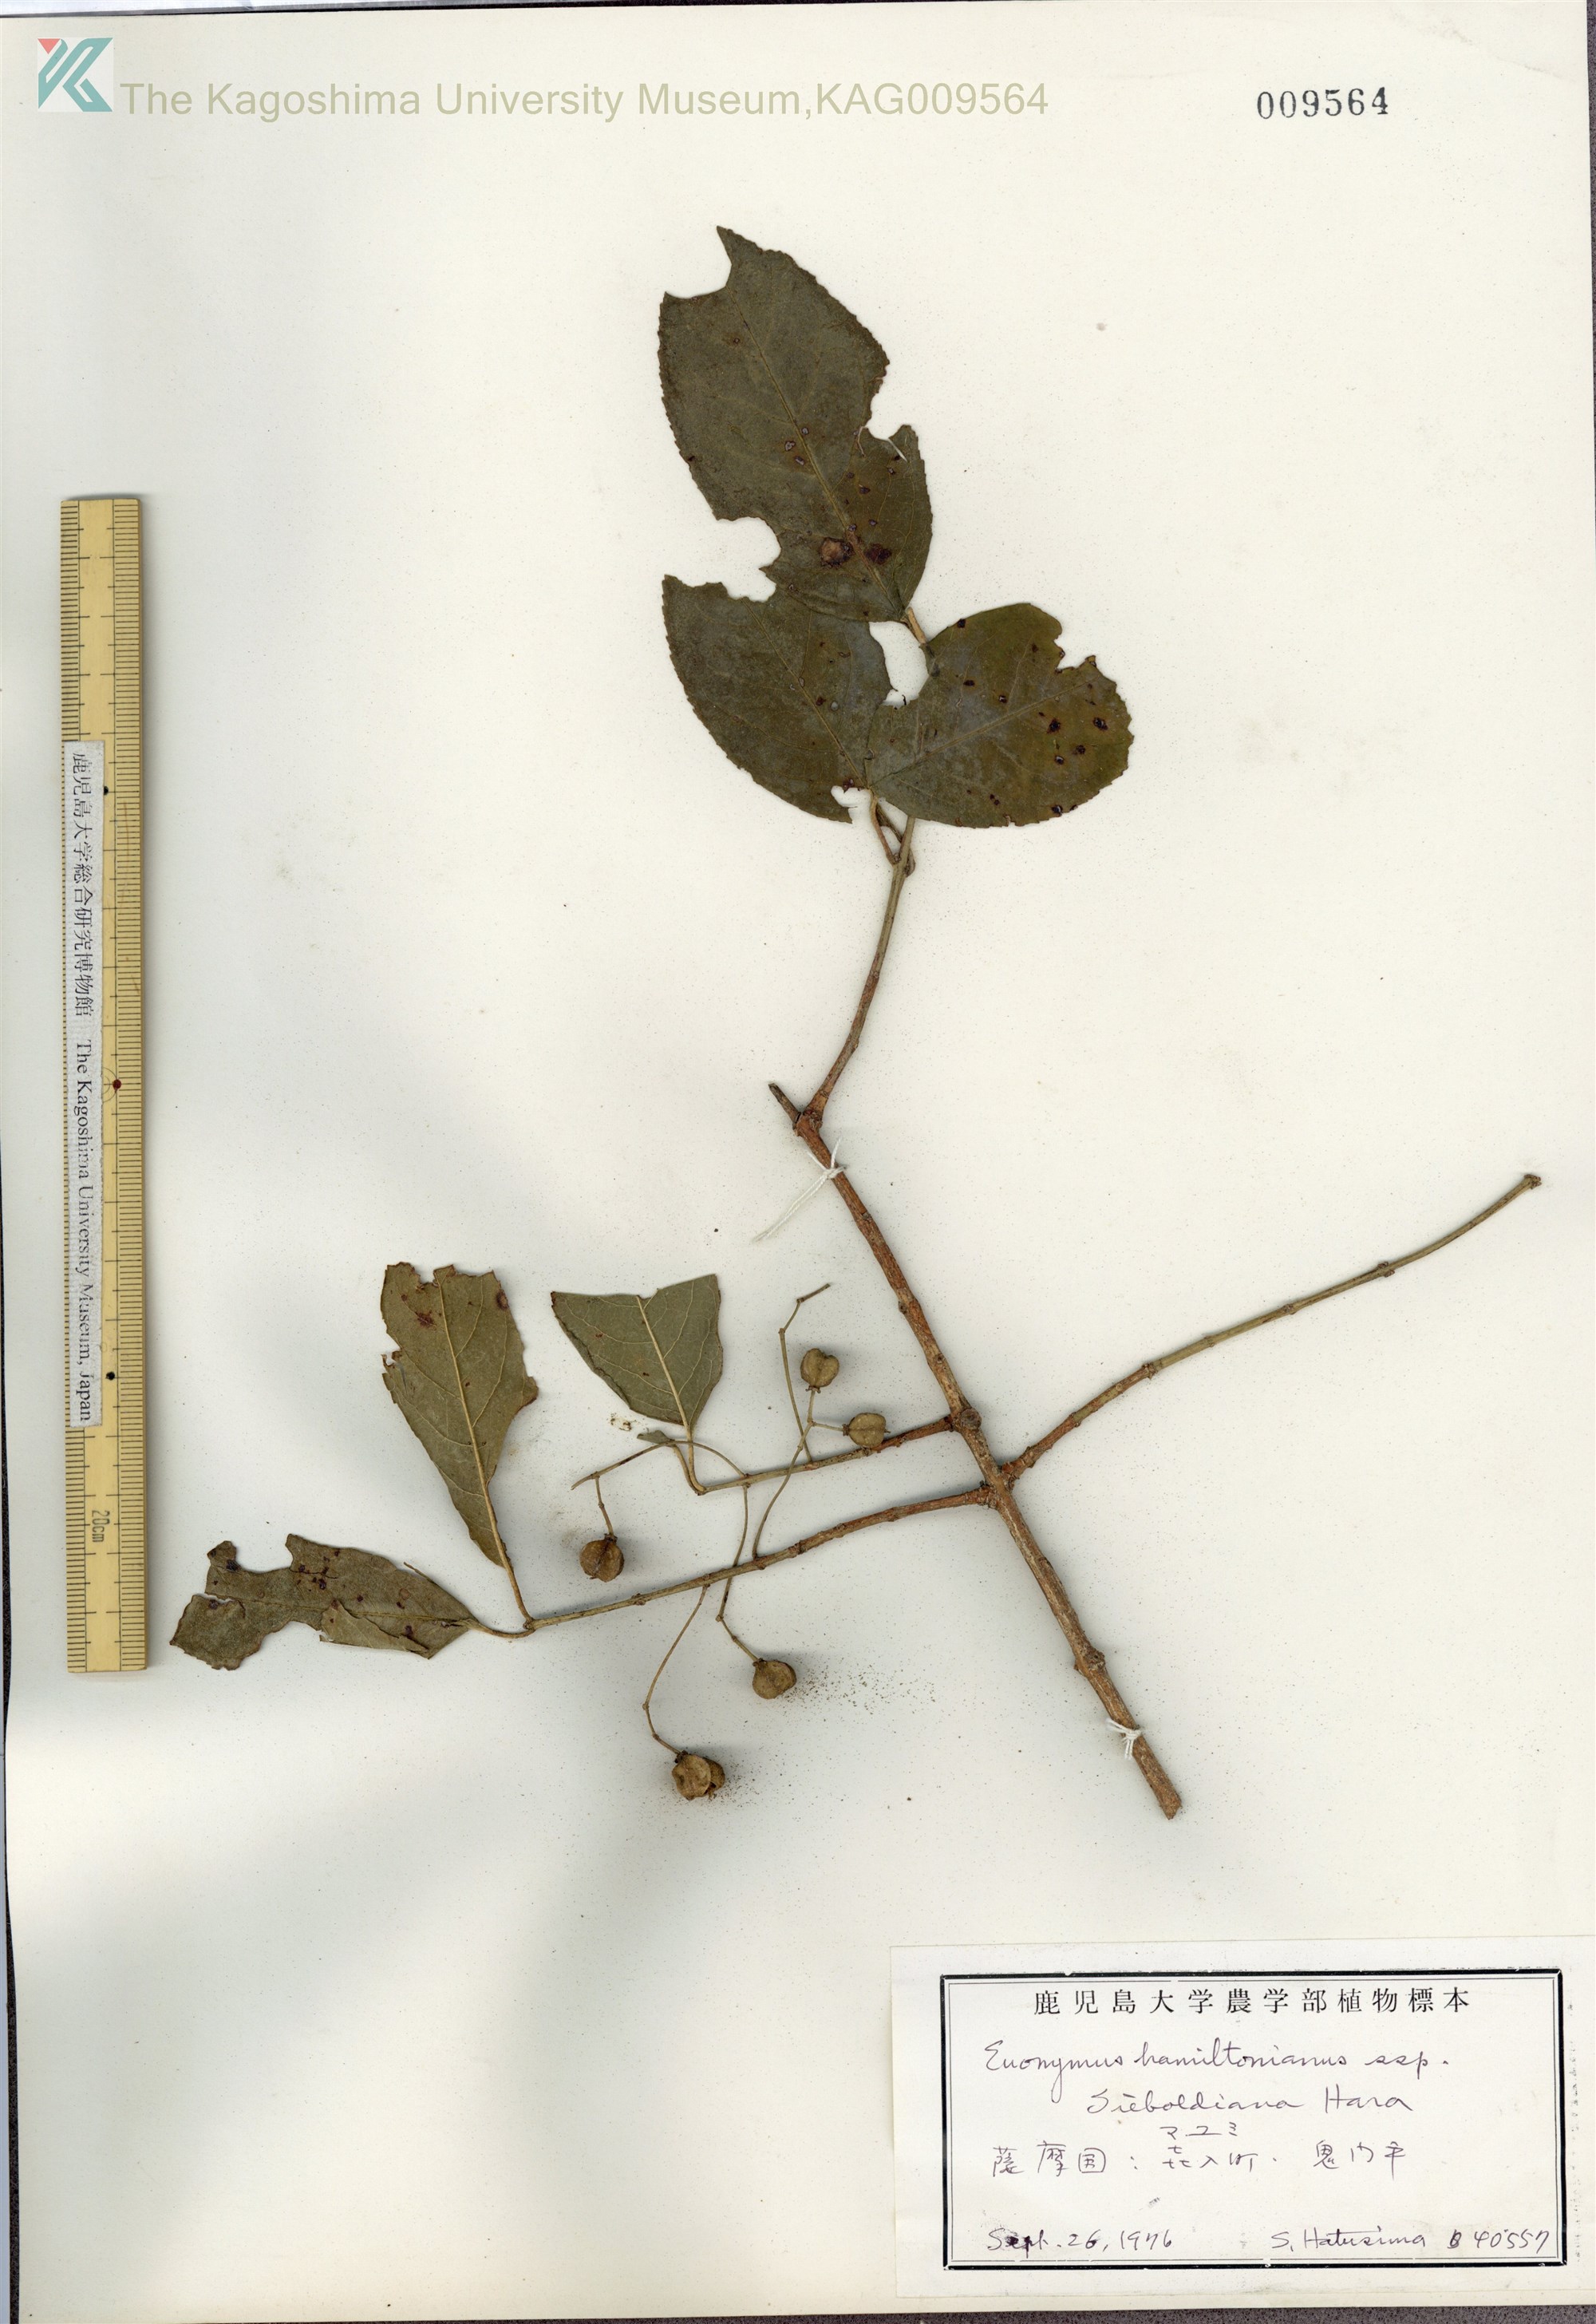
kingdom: Plantae
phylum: Tracheophyta
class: Magnoliopsida
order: Celastrales
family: Celastraceae
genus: Euonymus
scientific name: Euonymus hamiltonianus
